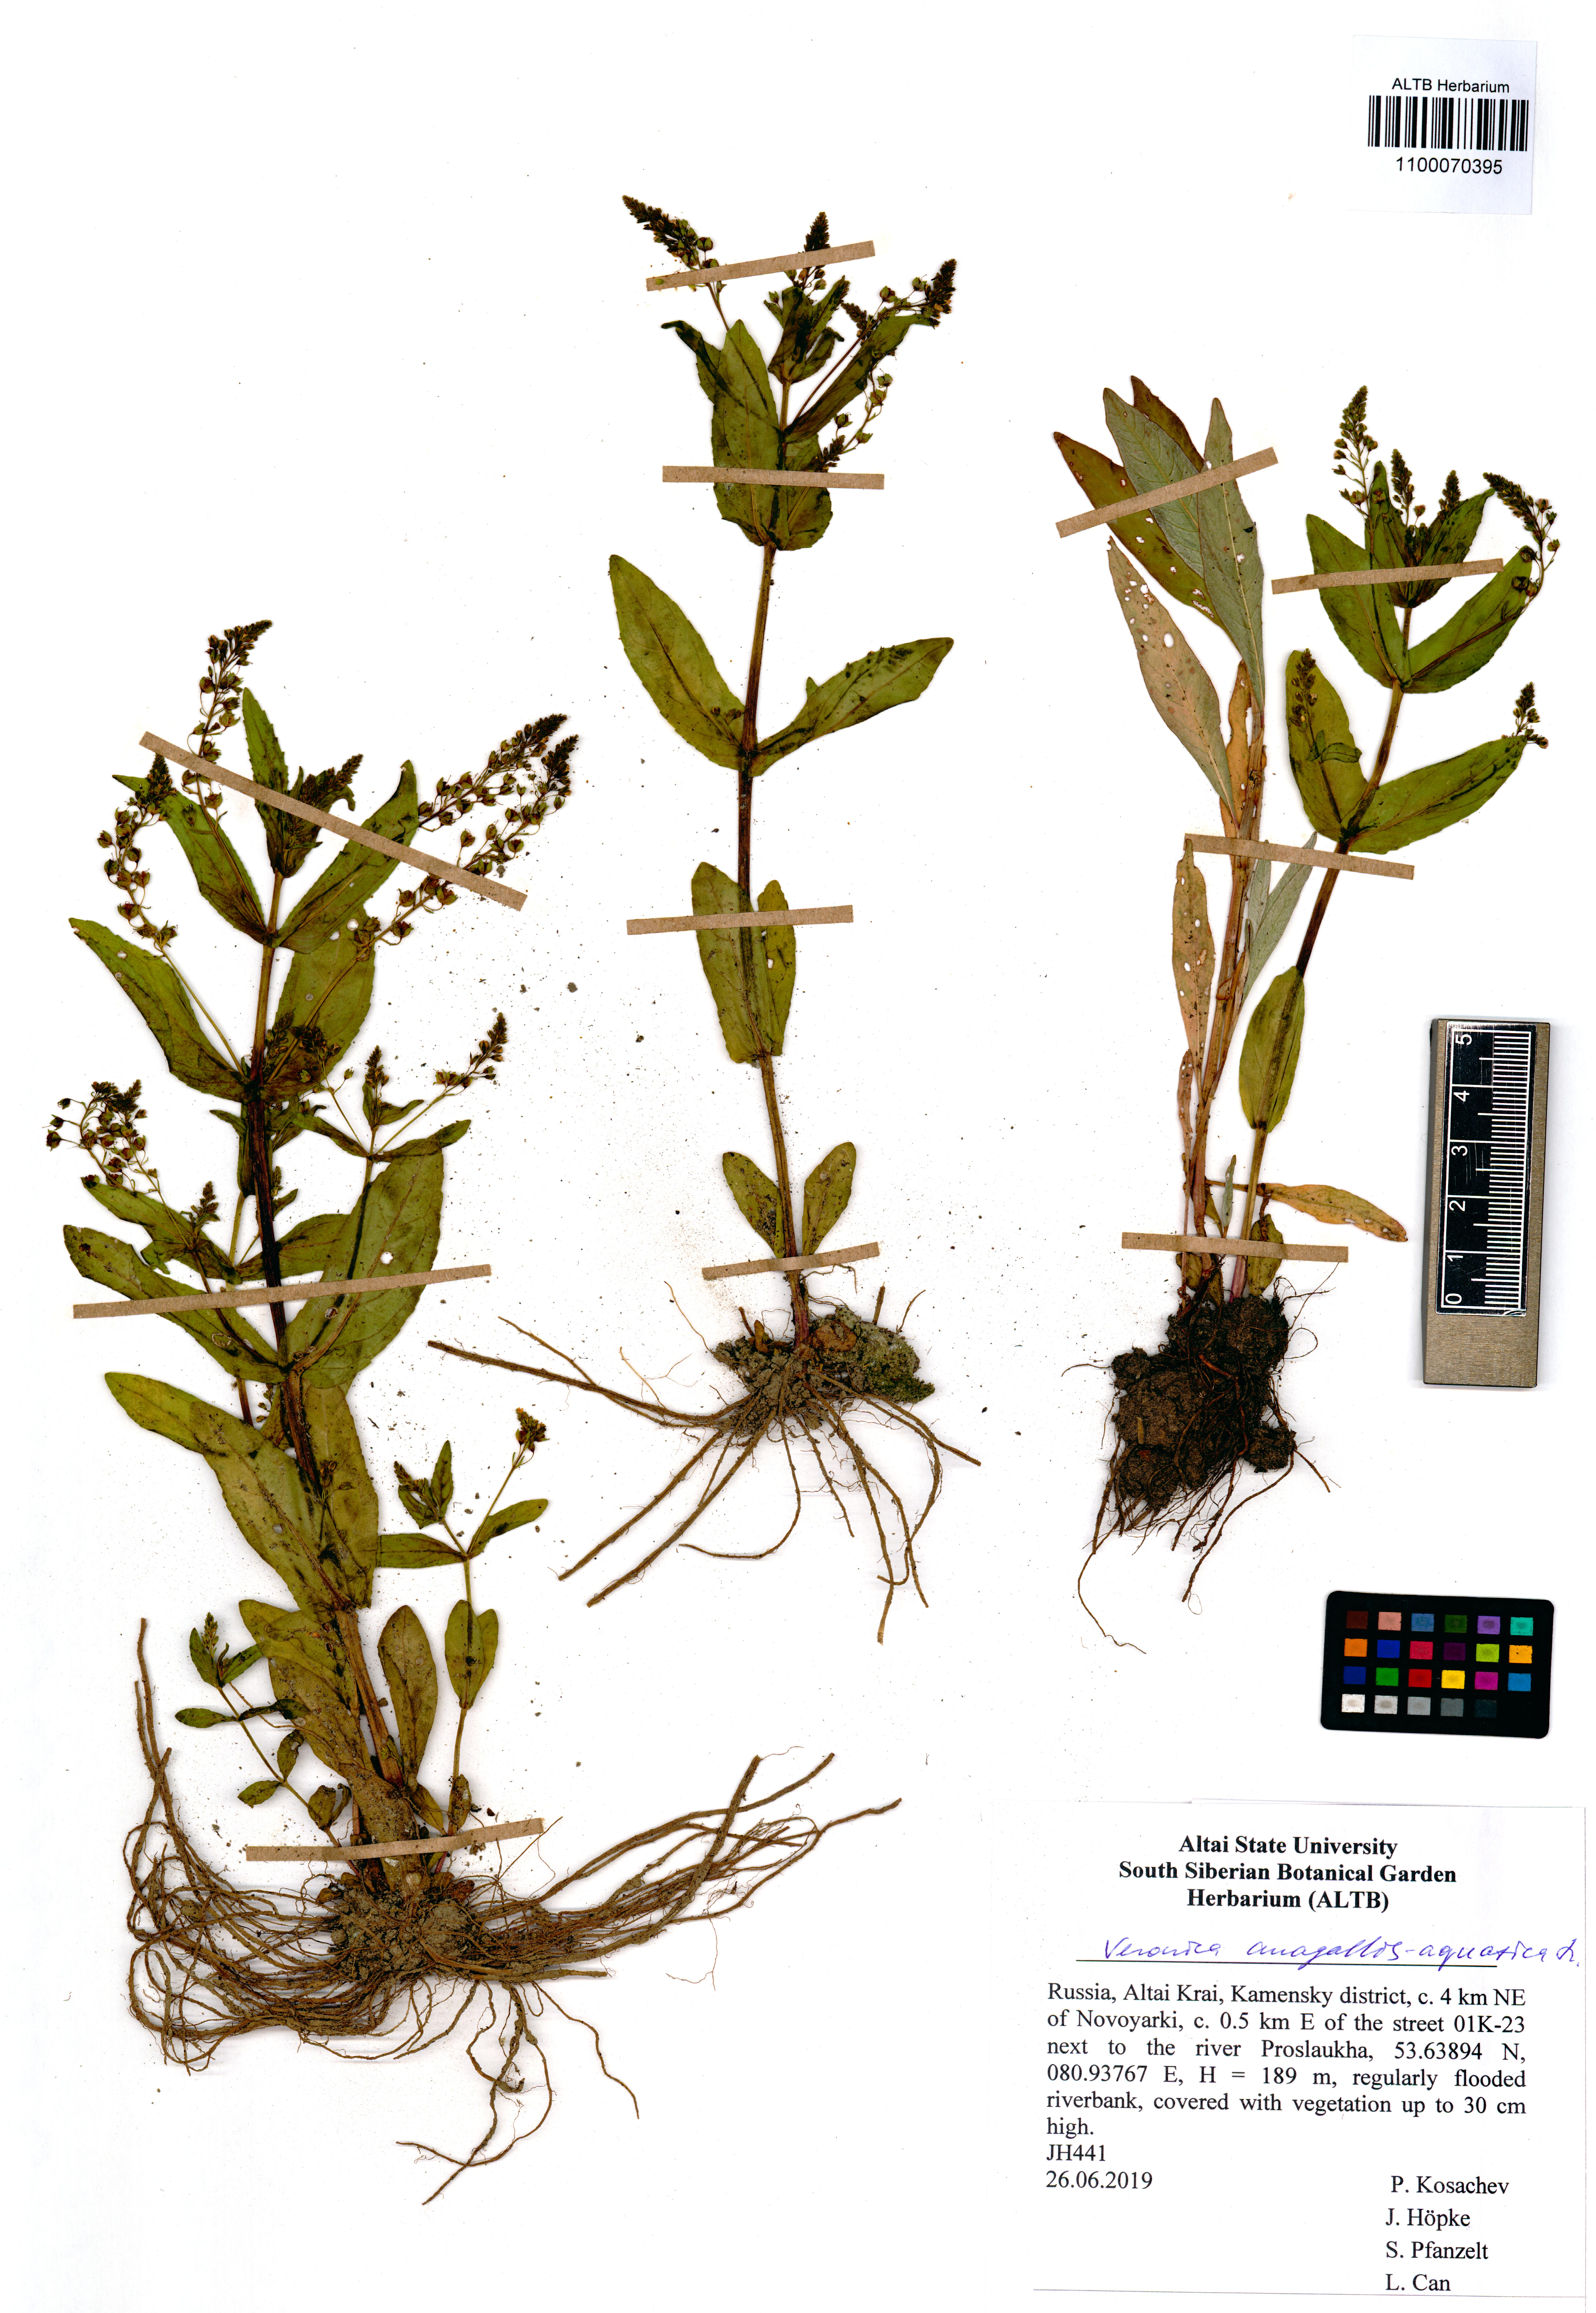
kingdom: Plantae
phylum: Tracheophyta
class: Magnoliopsida
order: Lamiales
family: Plantaginaceae
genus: Veronica
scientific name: Veronica anagallis-aquatica
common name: Water speedwell
